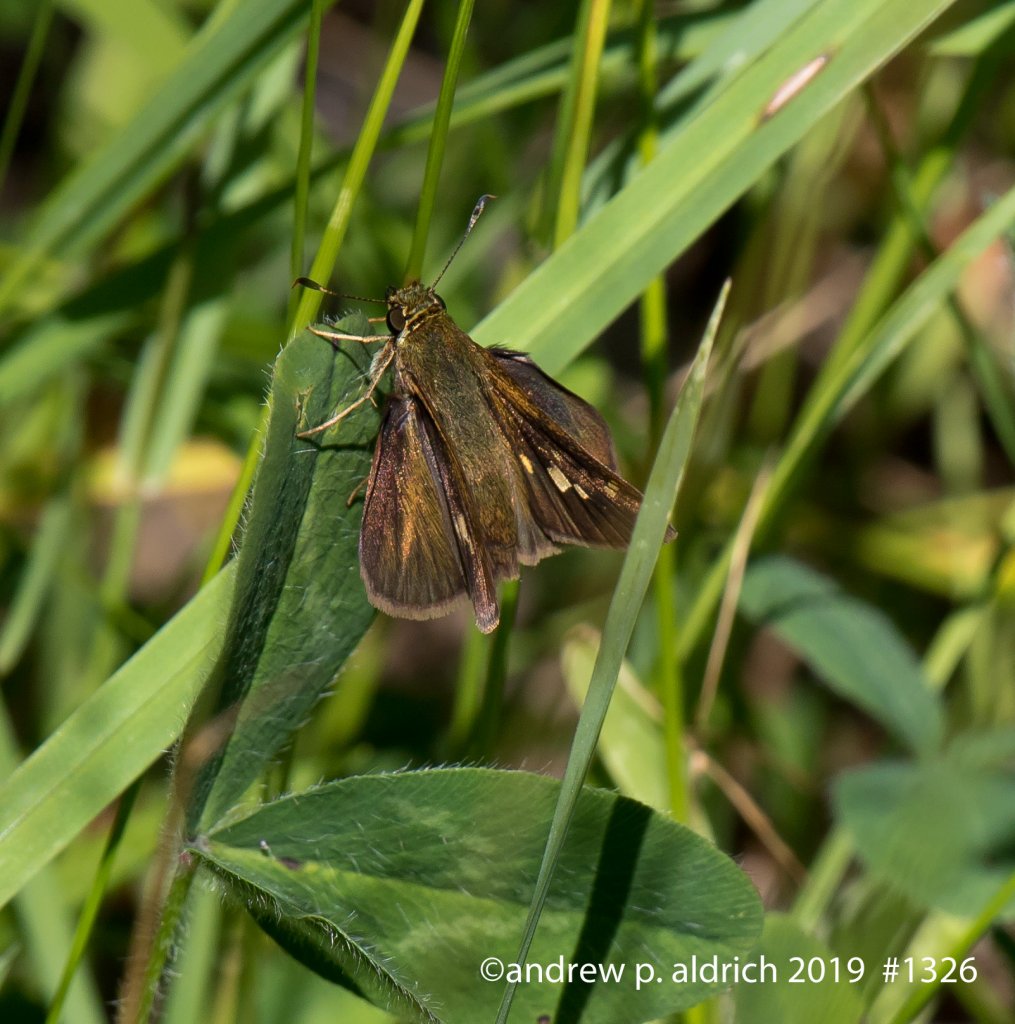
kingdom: Animalia
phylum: Arthropoda
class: Insecta
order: Lepidoptera
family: Hesperiidae
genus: Polites
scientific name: Polites egeremet
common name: Northern Broken-Dash
